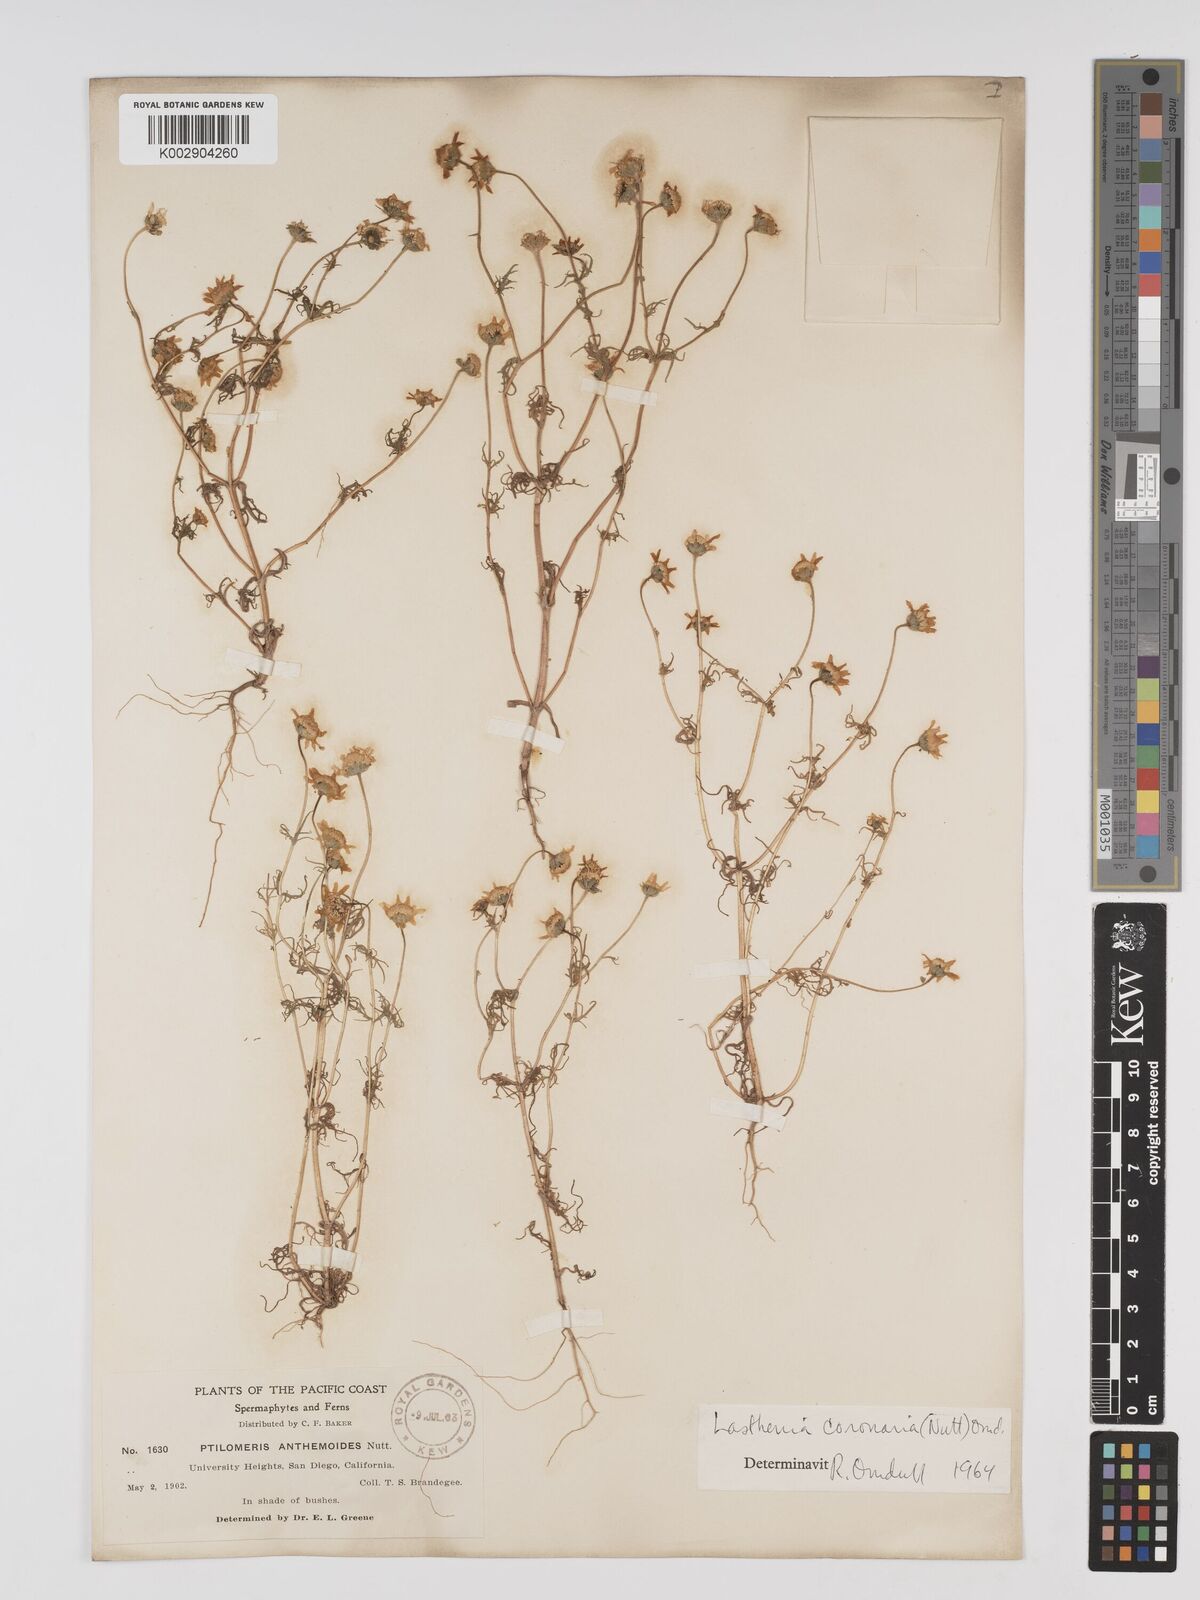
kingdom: Plantae
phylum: Tracheophyta
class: Magnoliopsida
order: Asterales
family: Asteraceae
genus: Lasthenia
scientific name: Lasthenia coronaria
